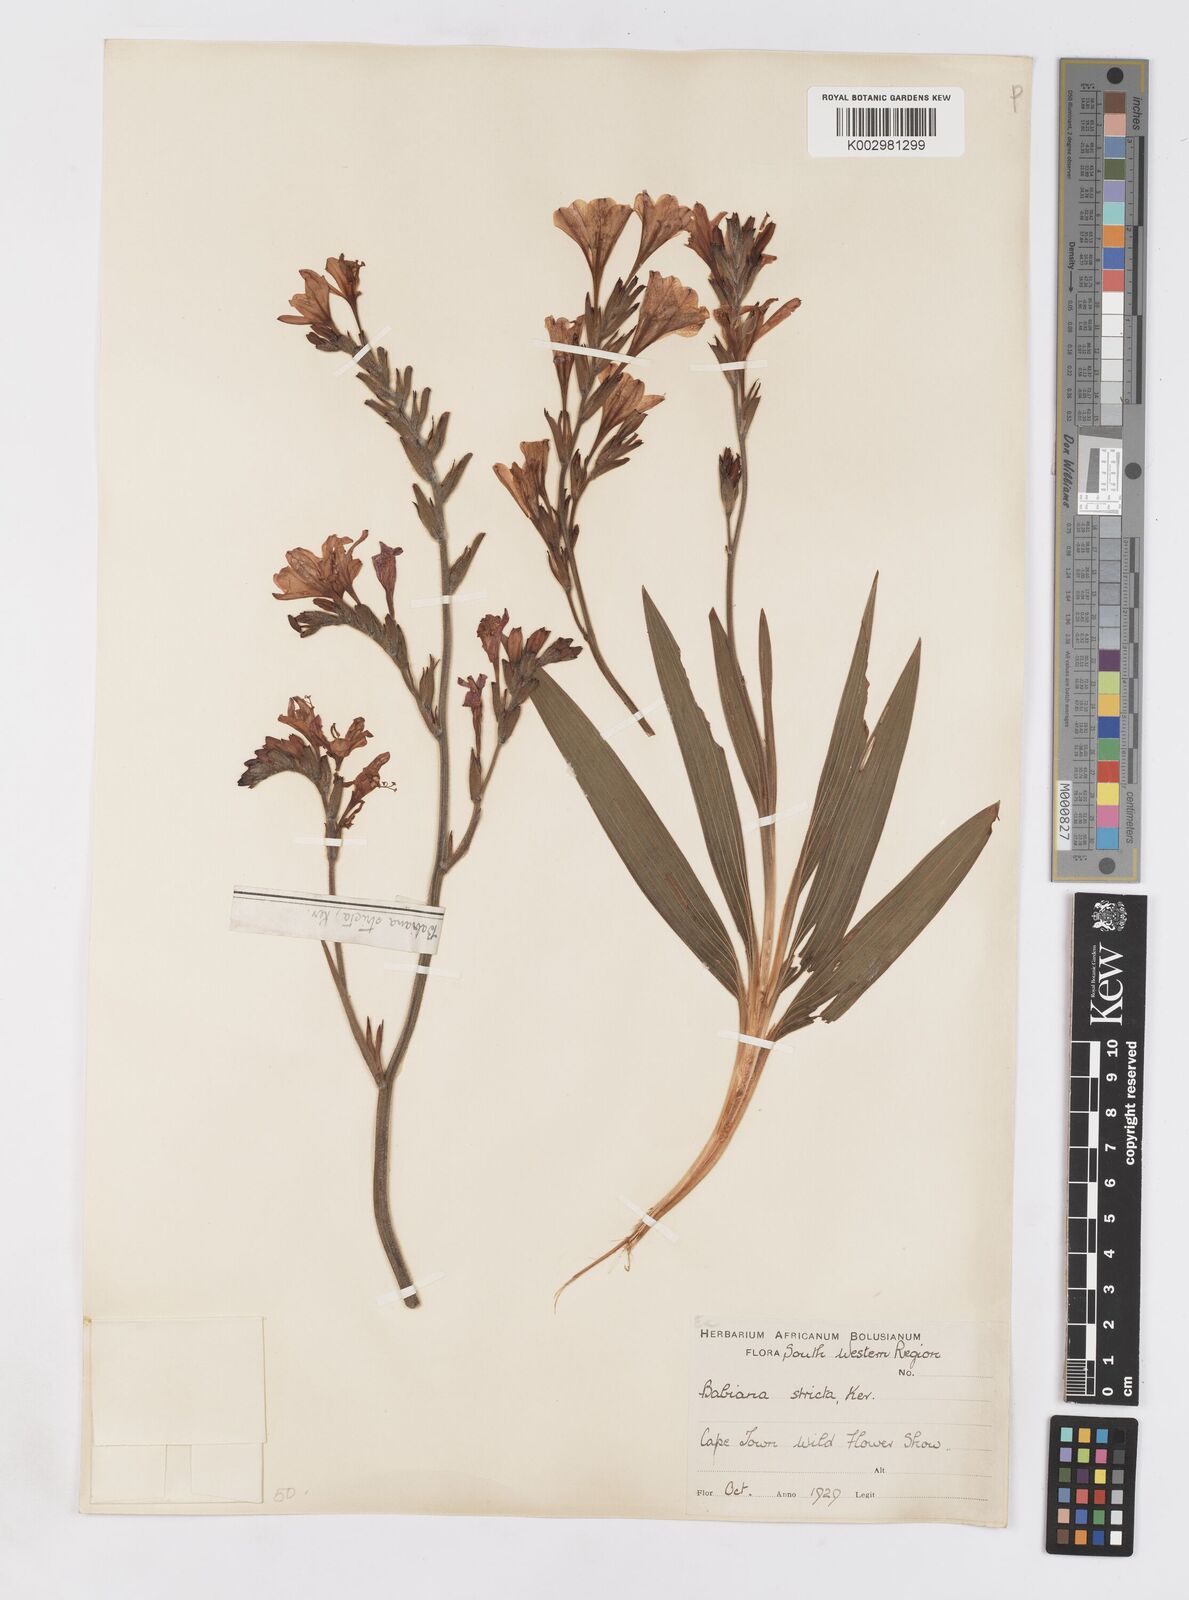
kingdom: Plantae
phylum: Tracheophyta
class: Liliopsida
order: Asparagales
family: Iridaceae
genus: Babiana
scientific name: Babiana nervosa
